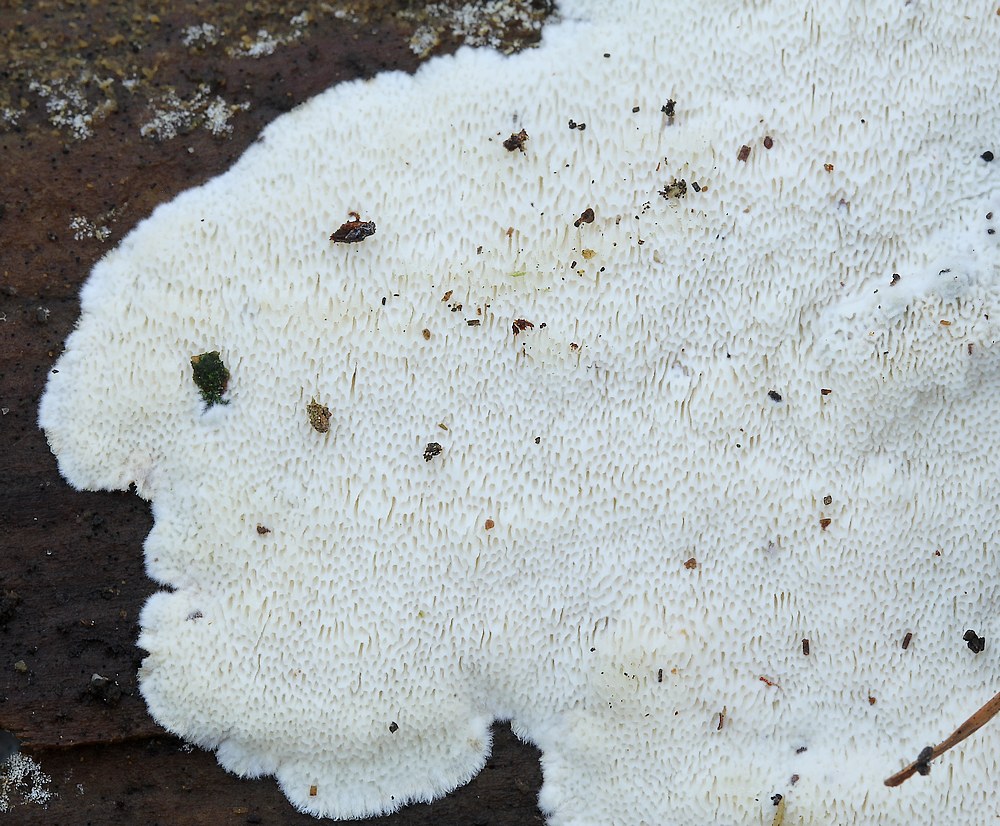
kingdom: Fungi
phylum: Basidiomycota
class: Agaricomycetes
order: Polyporales
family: Gelatoporiaceae
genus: Cinereomyces
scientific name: Cinereomyces lindbladii
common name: almindelig gråporesvamp
